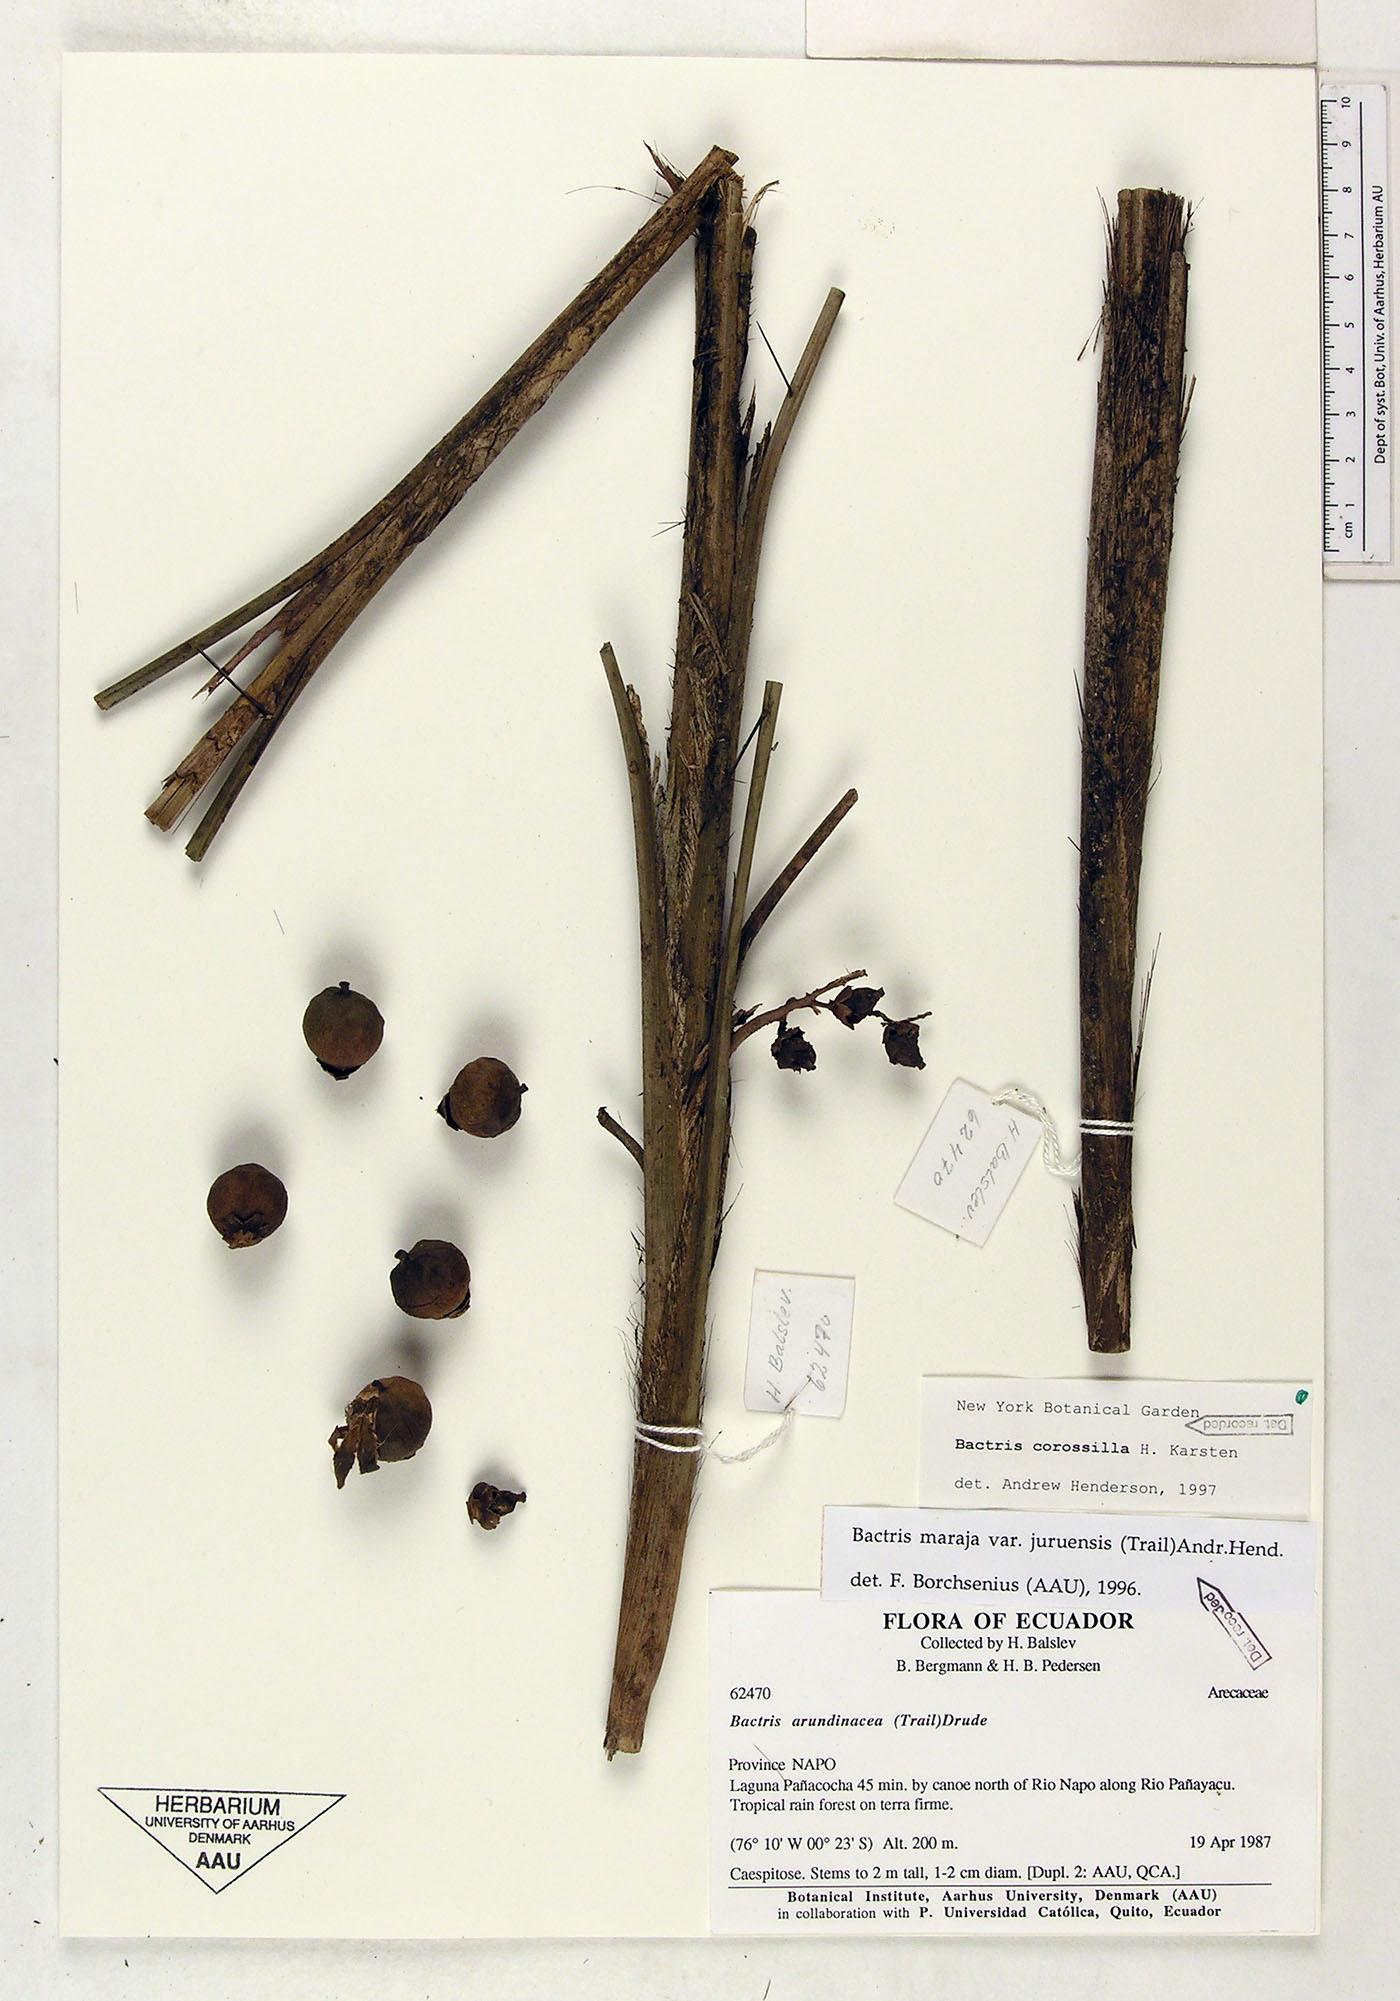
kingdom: Plantae
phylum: Tracheophyta
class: Liliopsida
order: Arecales
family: Arecaceae
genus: Bactris
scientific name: Bactris corossilla
